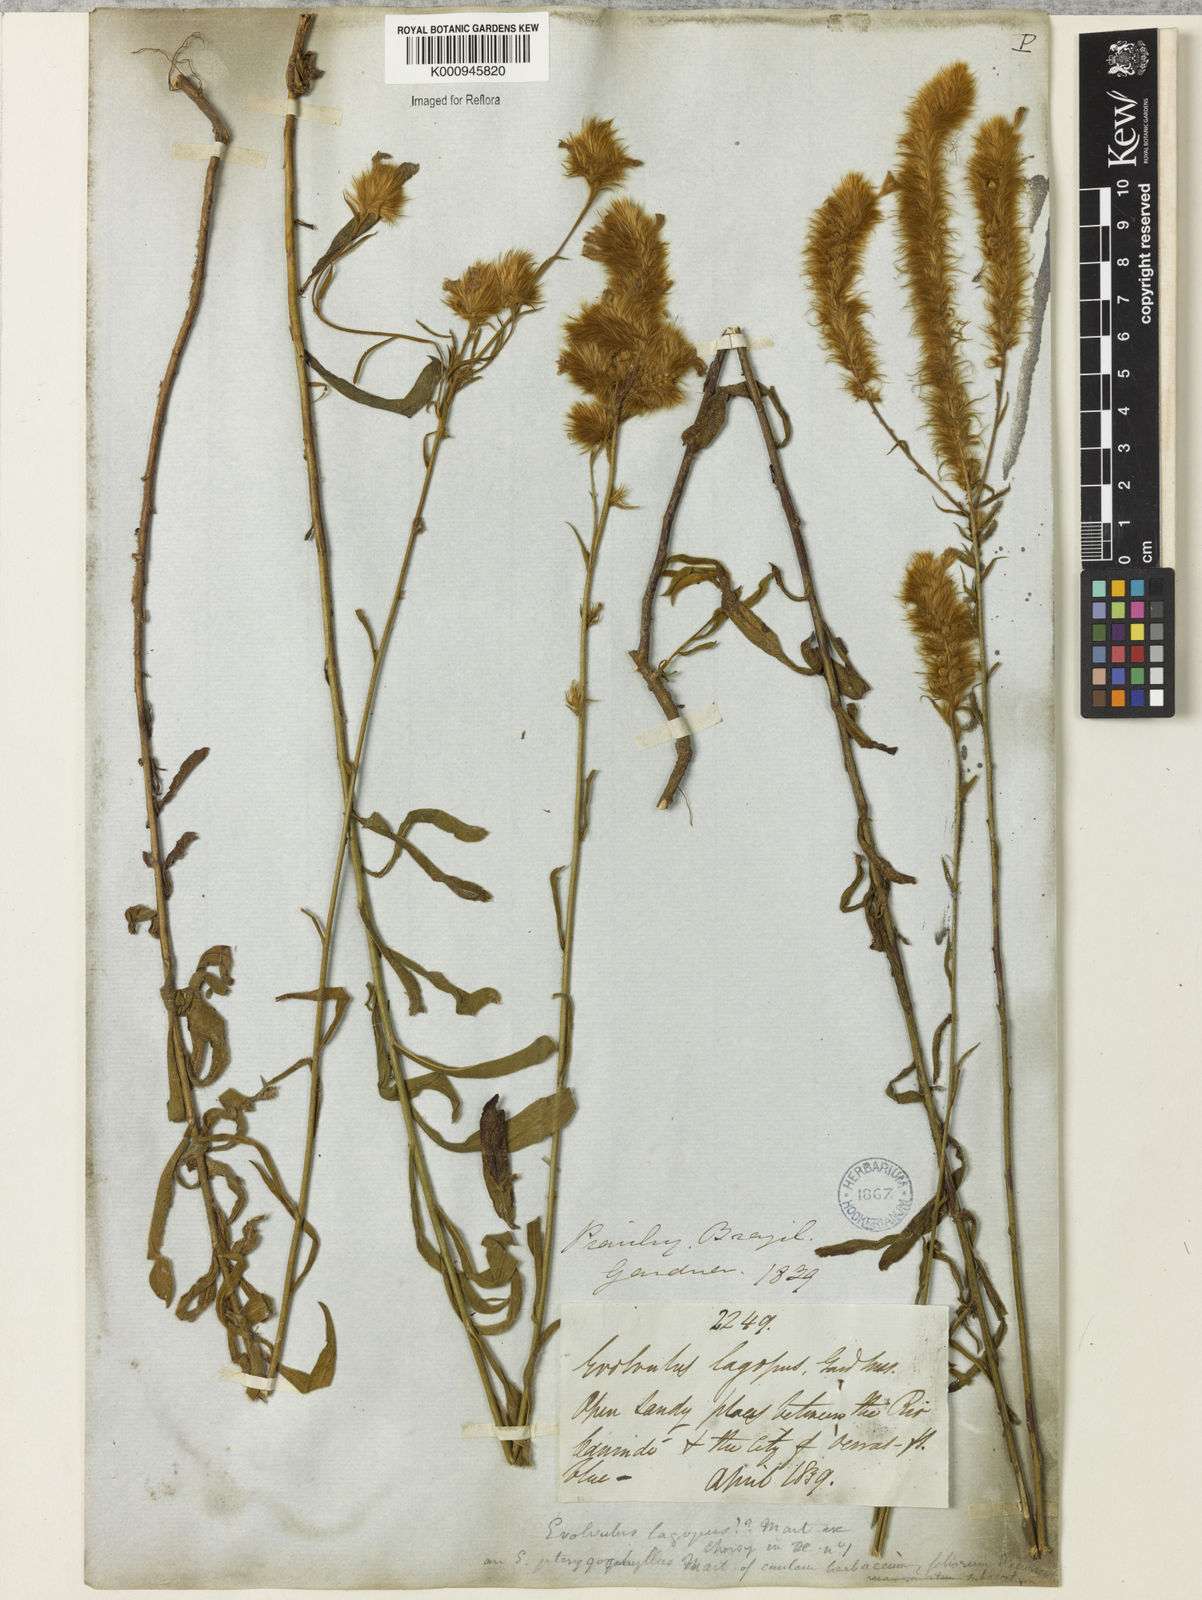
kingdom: Plantae
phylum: Tracheophyta
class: Magnoliopsida
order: Solanales
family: Convolvulaceae
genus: Evolvulus
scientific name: Evolvulus lagopus
